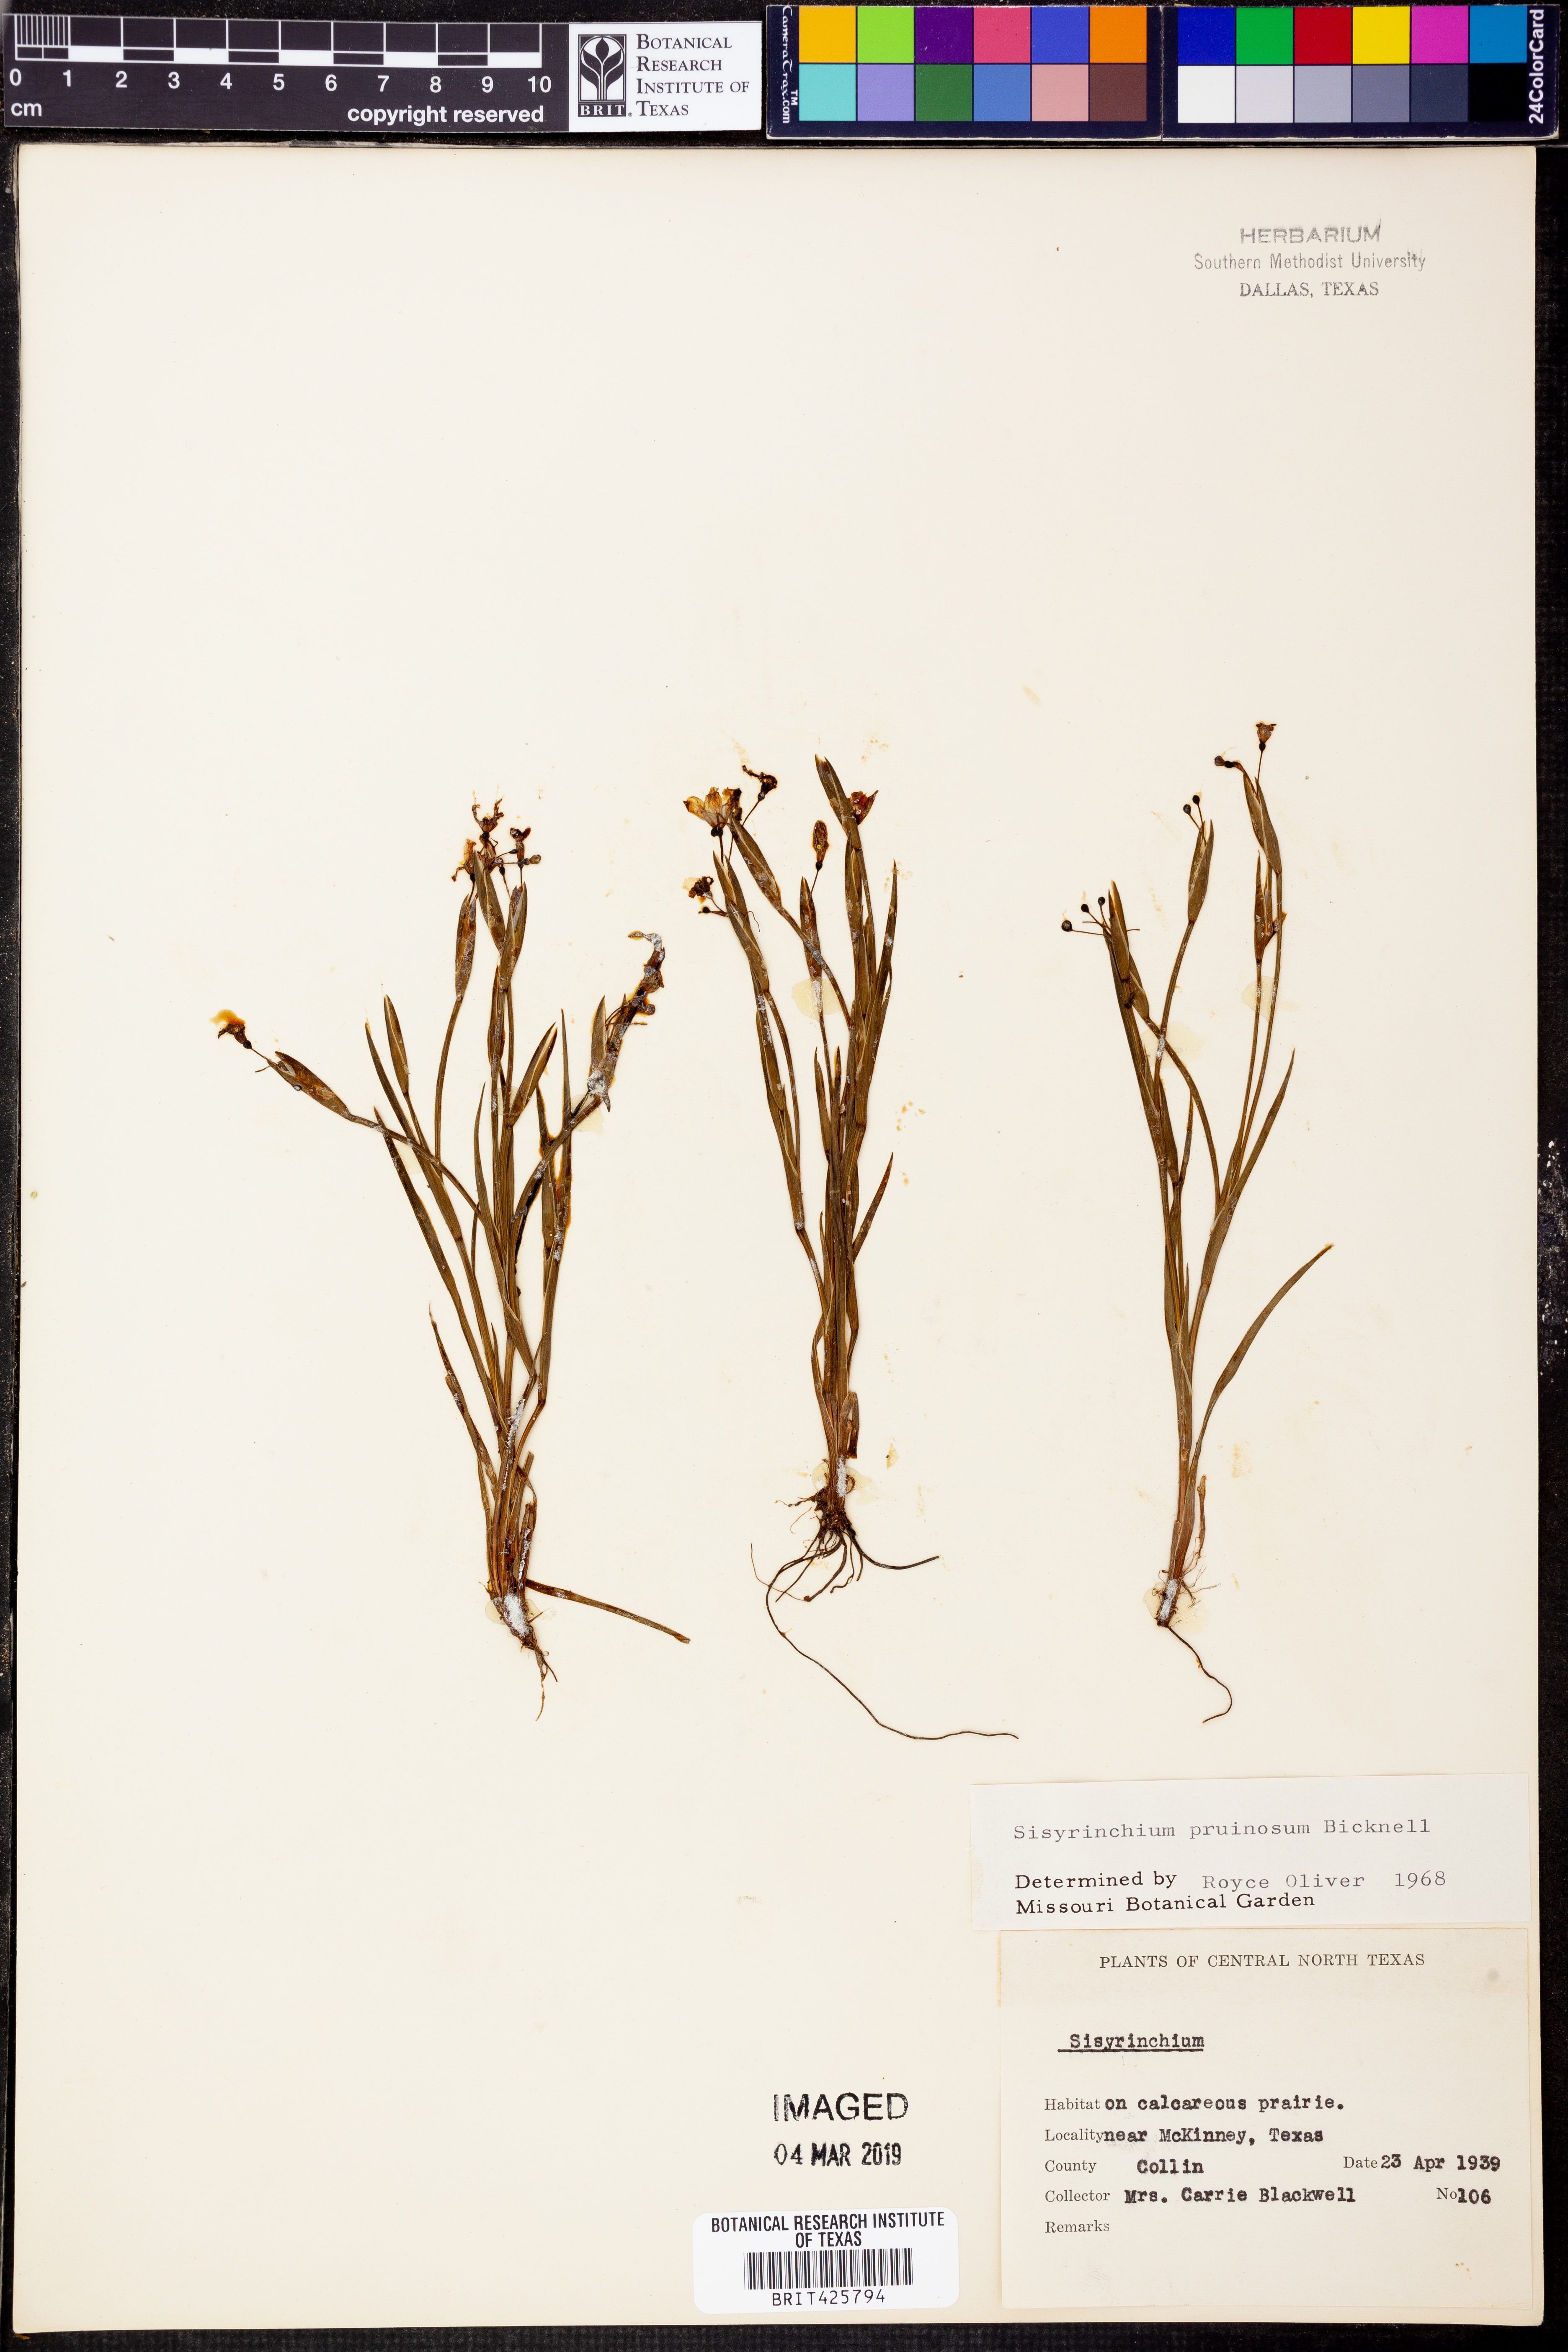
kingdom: Plantae
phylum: Tracheophyta
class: Liliopsida
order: Asparagales
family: Iridaceae
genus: Sisyrinchium
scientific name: Sisyrinchium pruinosum
